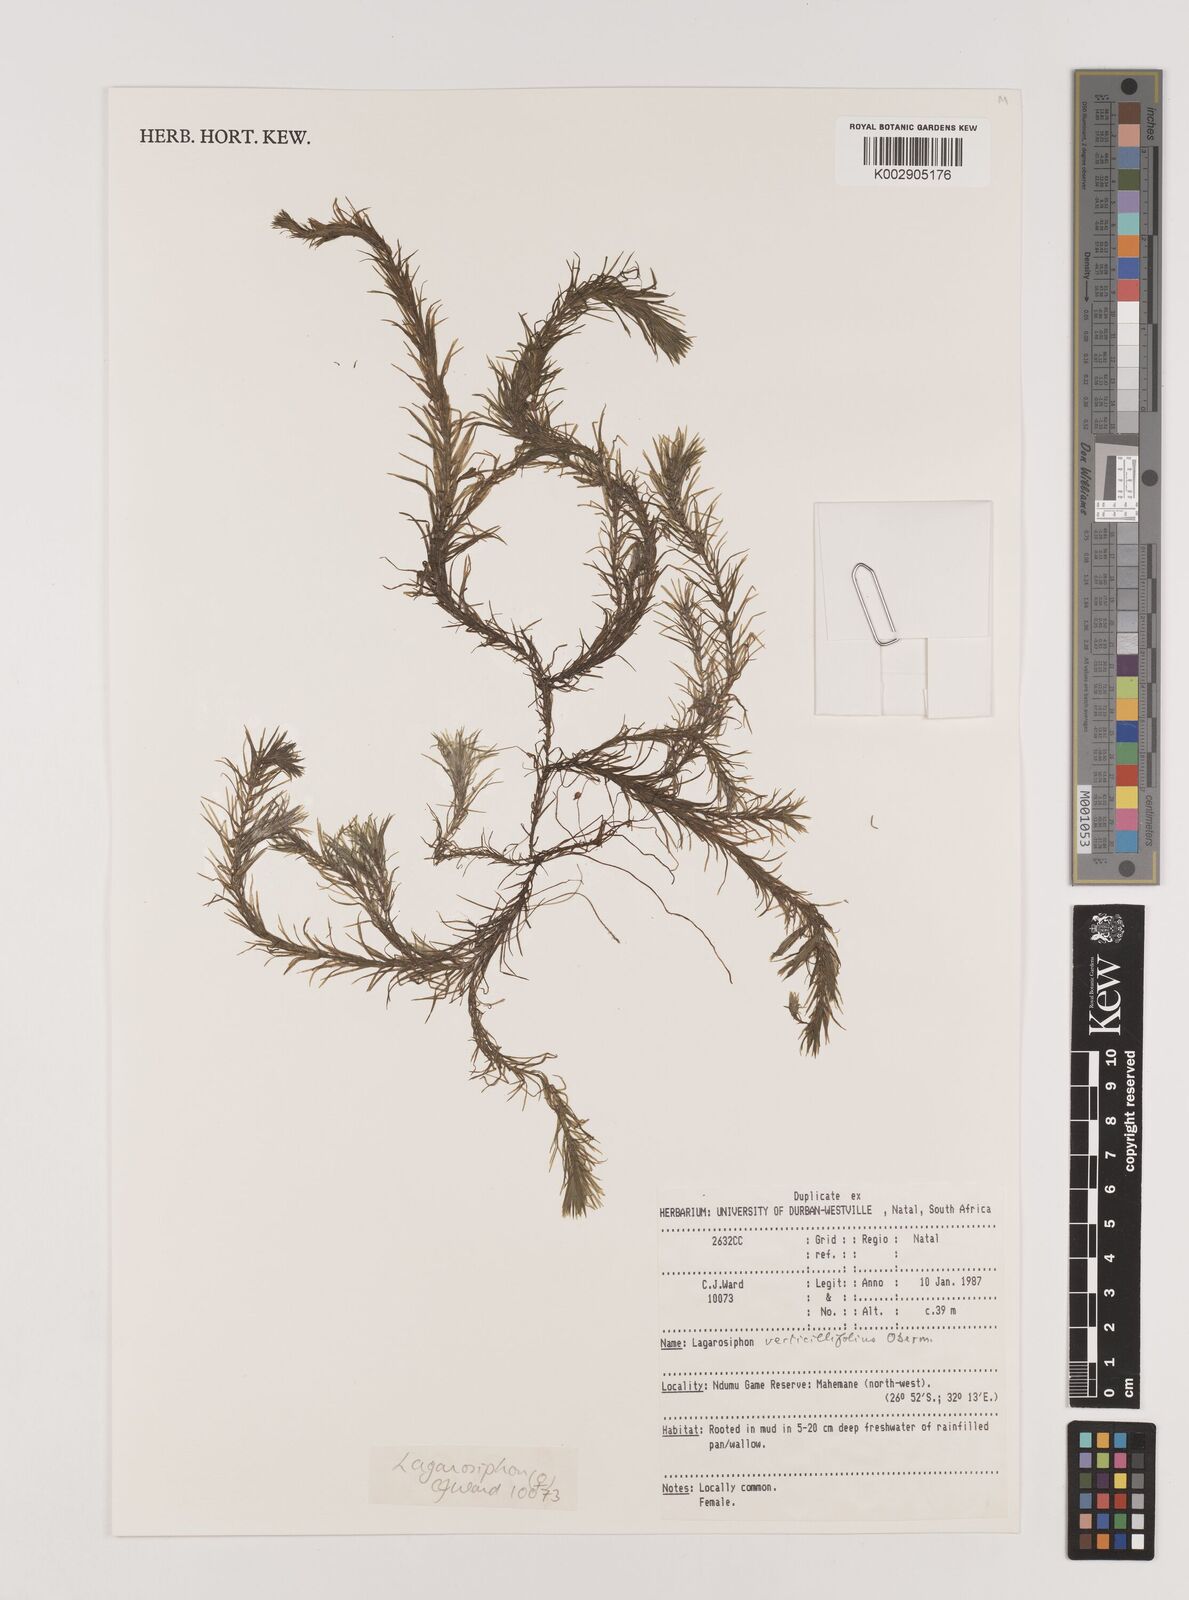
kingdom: Plantae
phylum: Tracheophyta
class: Liliopsida
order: Alismatales
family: Hydrocharitaceae
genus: Lagarosiphon
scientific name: Lagarosiphon verticillifolius
